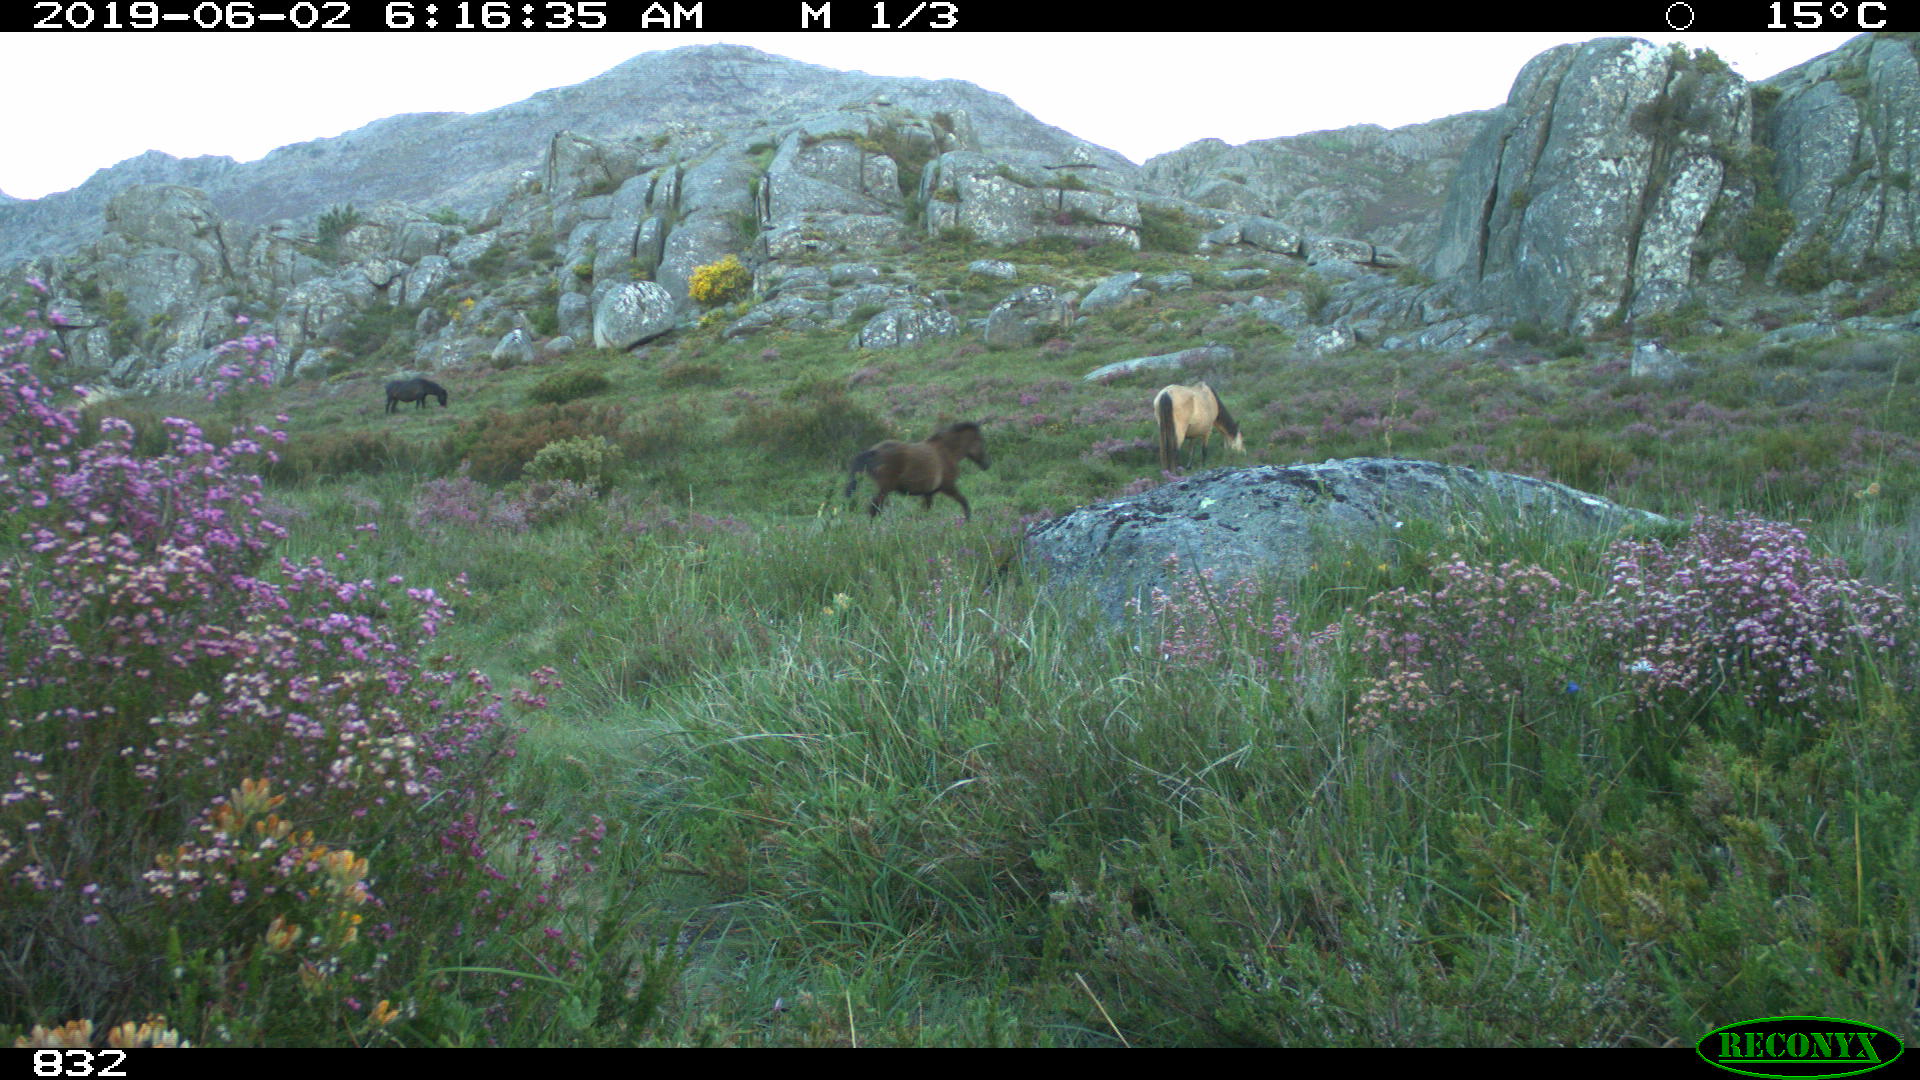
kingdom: Animalia
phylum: Chordata
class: Mammalia
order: Perissodactyla
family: Equidae
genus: Equus
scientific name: Equus caballus
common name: Horse
